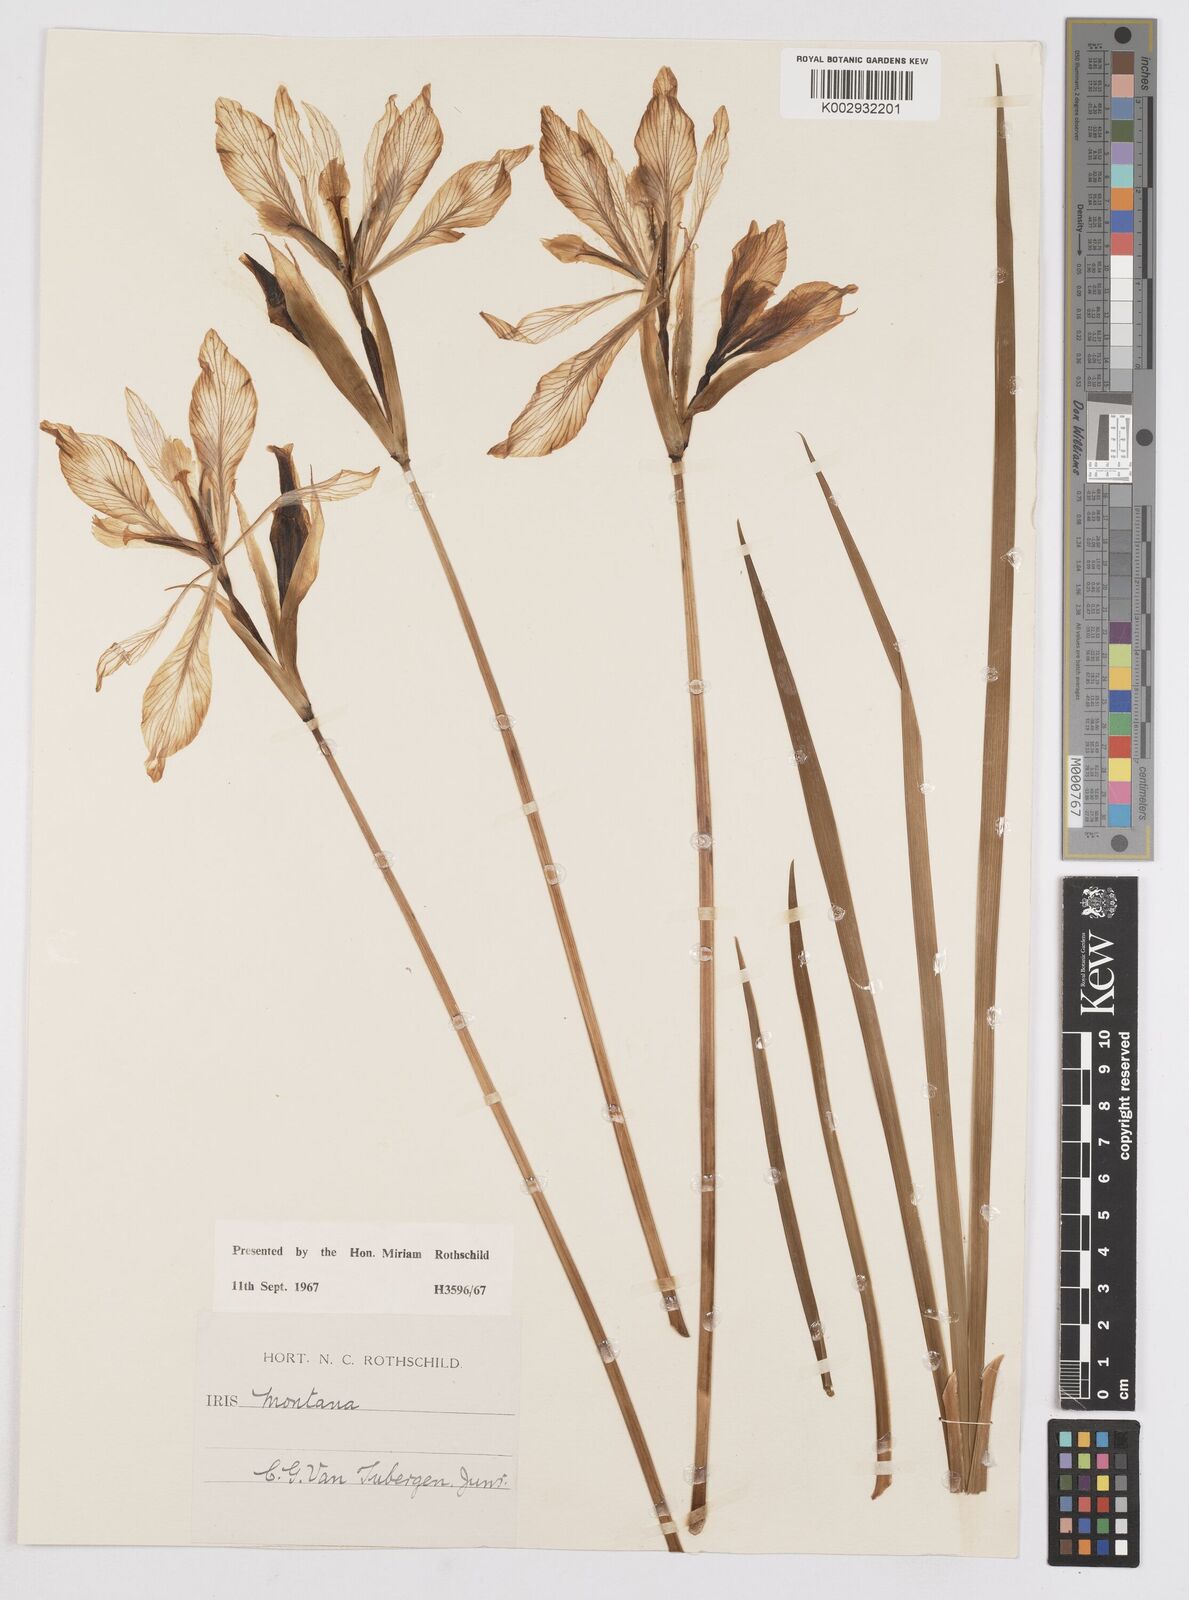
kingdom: Plantae
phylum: Tracheophyta
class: Liliopsida
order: Asparagales
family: Iridaceae
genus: Iris
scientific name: Iris missouriensis
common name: Rocky mountain iris
